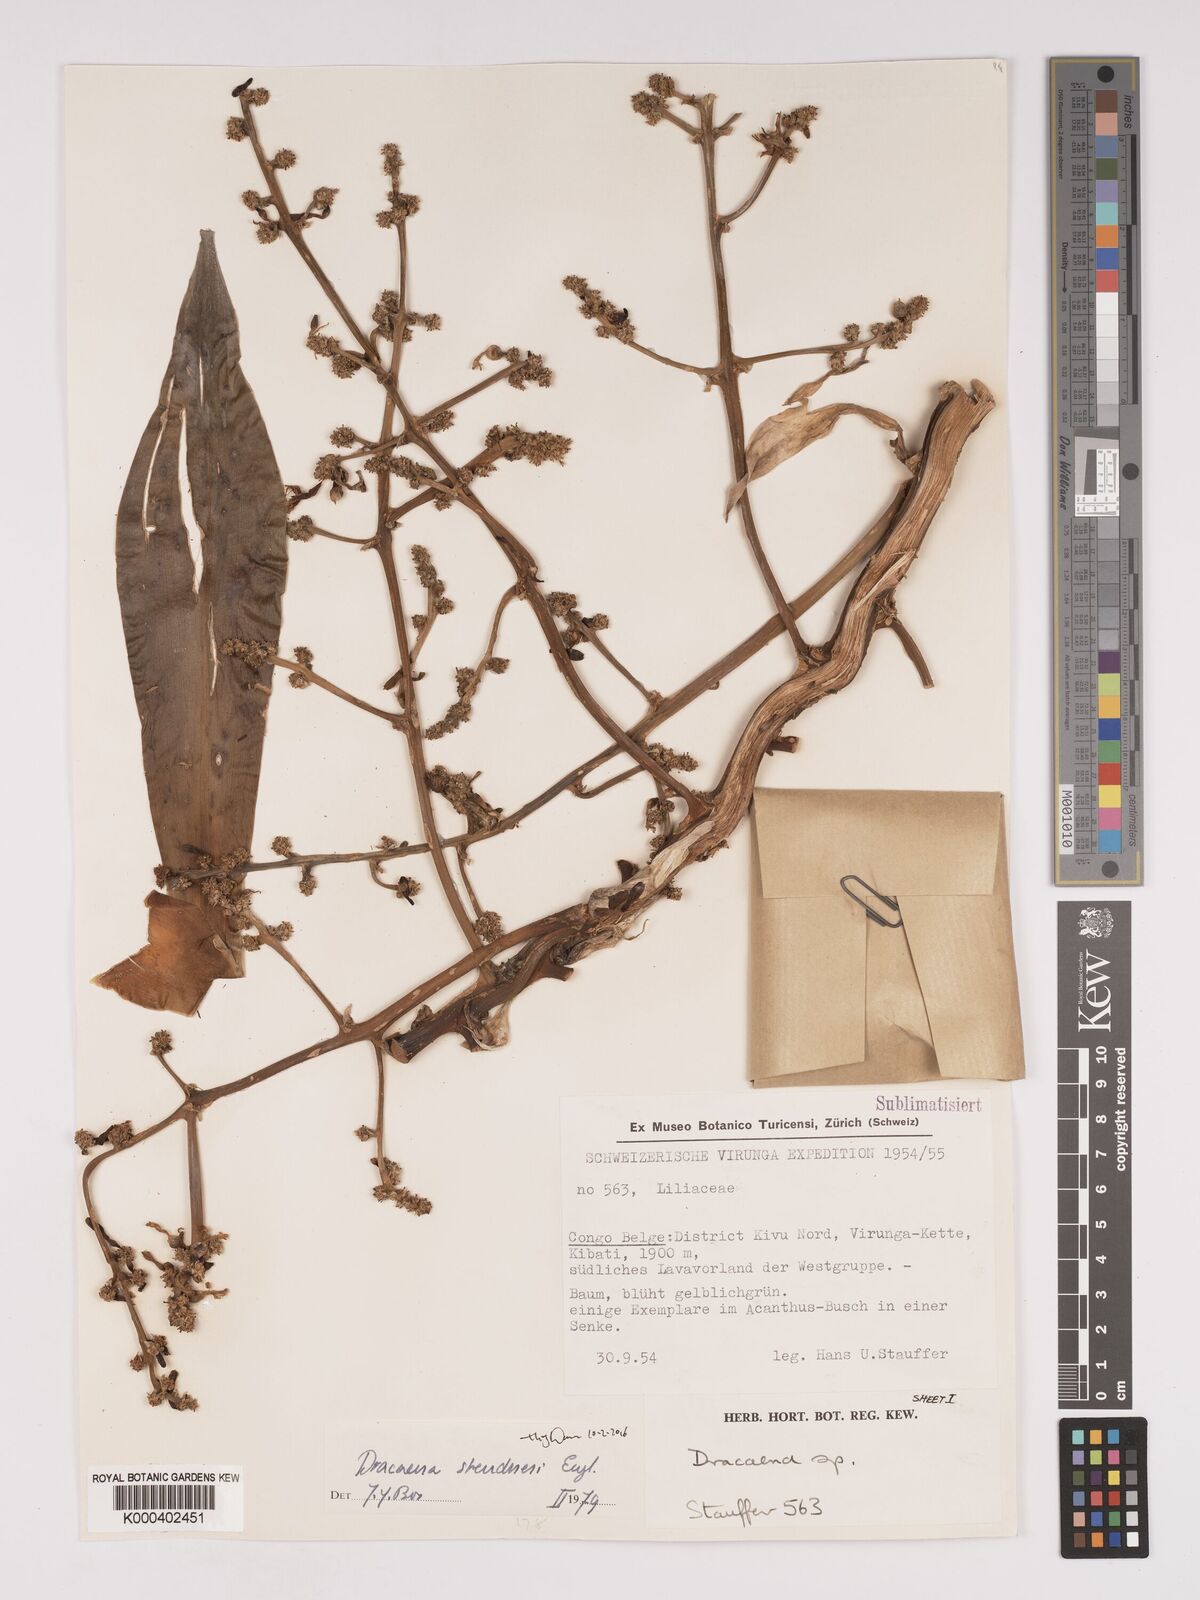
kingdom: Plantae
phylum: Tracheophyta
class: Liliopsida
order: Asparagales
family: Asparagaceae
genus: Dracaena
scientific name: Dracaena steudneri
